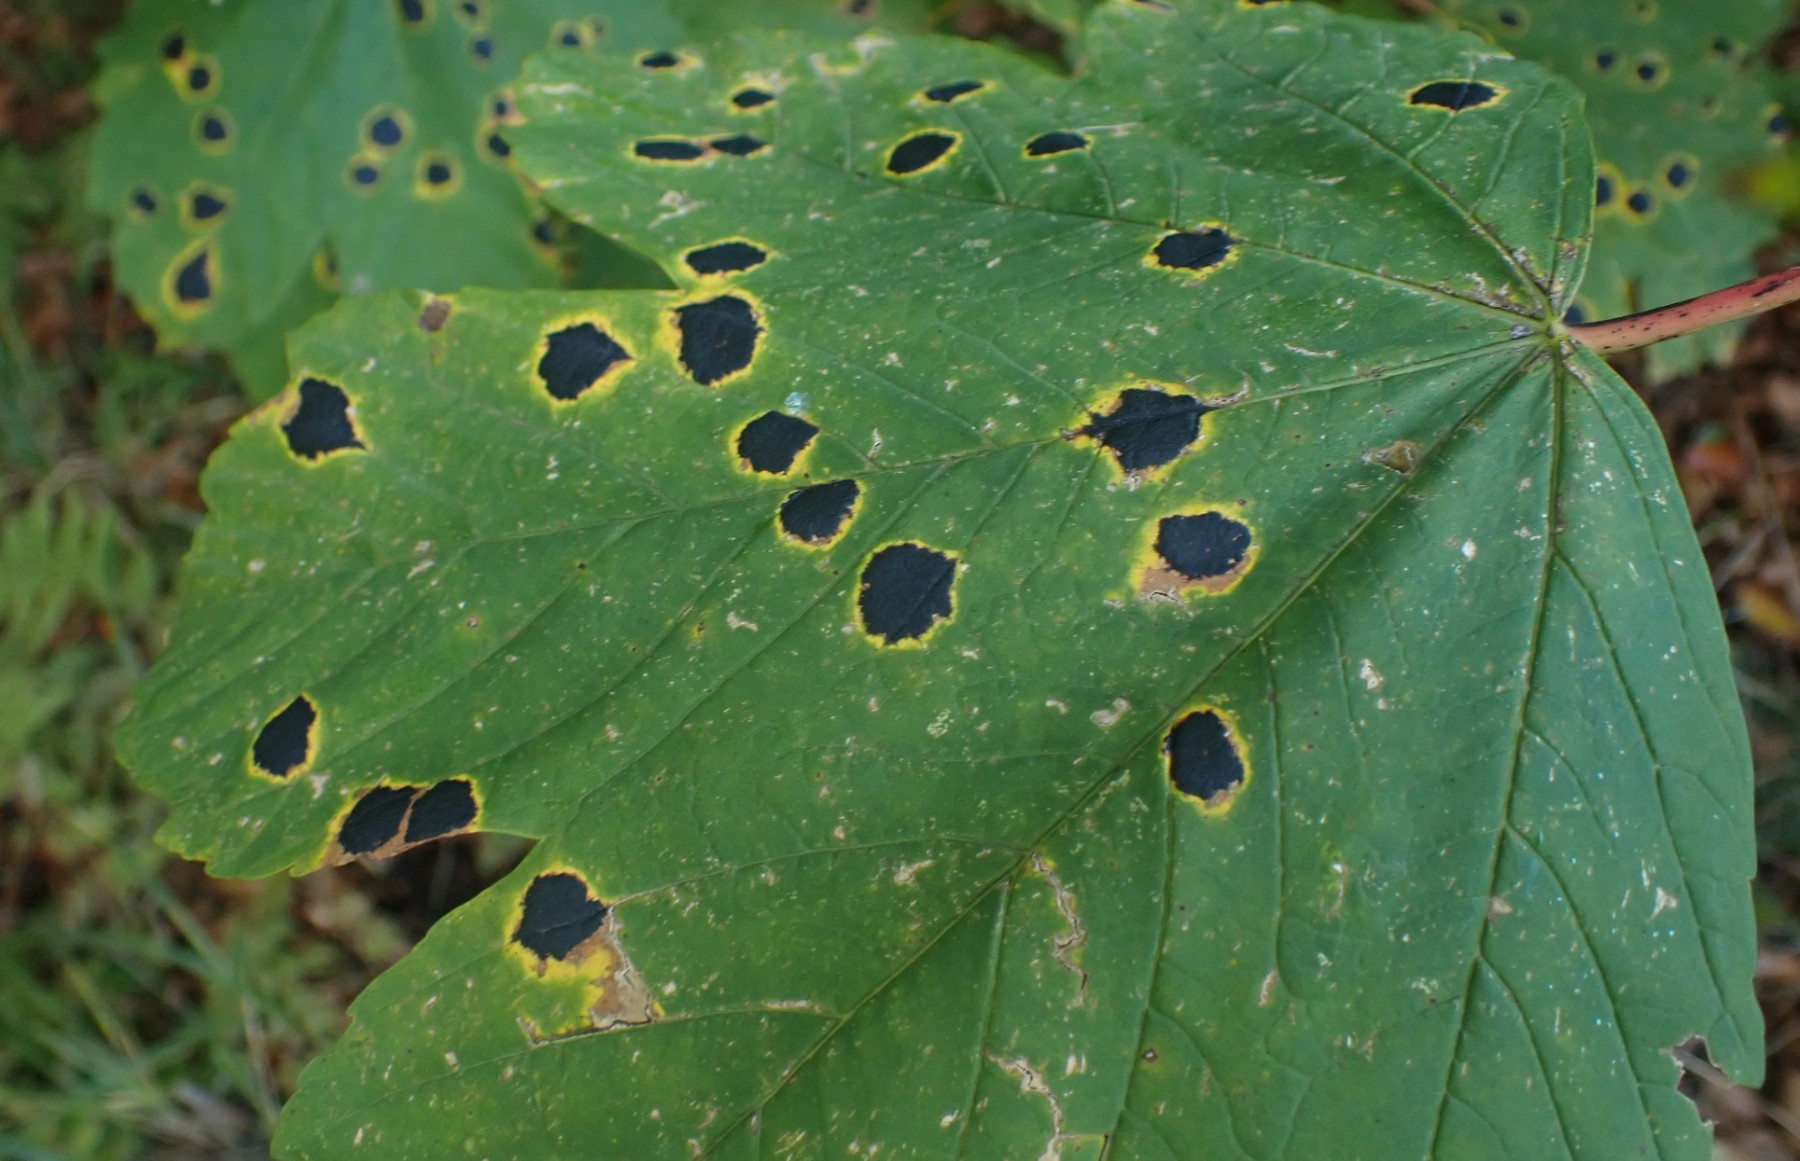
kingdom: Fungi
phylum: Ascomycota
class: Leotiomycetes
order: Rhytismatales
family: Rhytismataceae
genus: Rhytisma
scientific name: Rhytisma acerinum
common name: ahorn-rynkeplet
